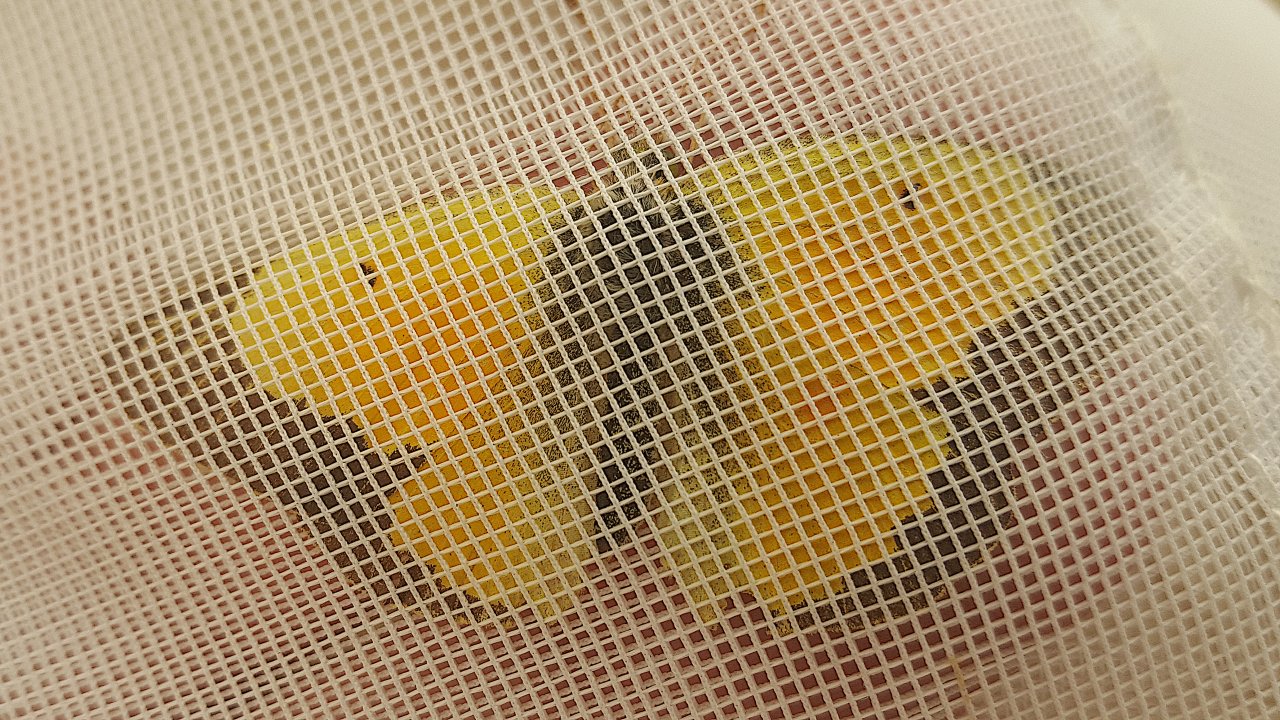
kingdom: Animalia
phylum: Arthropoda
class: Insecta
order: Lepidoptera
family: Pieridae
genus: Colias
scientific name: Colias eurytheme
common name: Orange Sulphur
